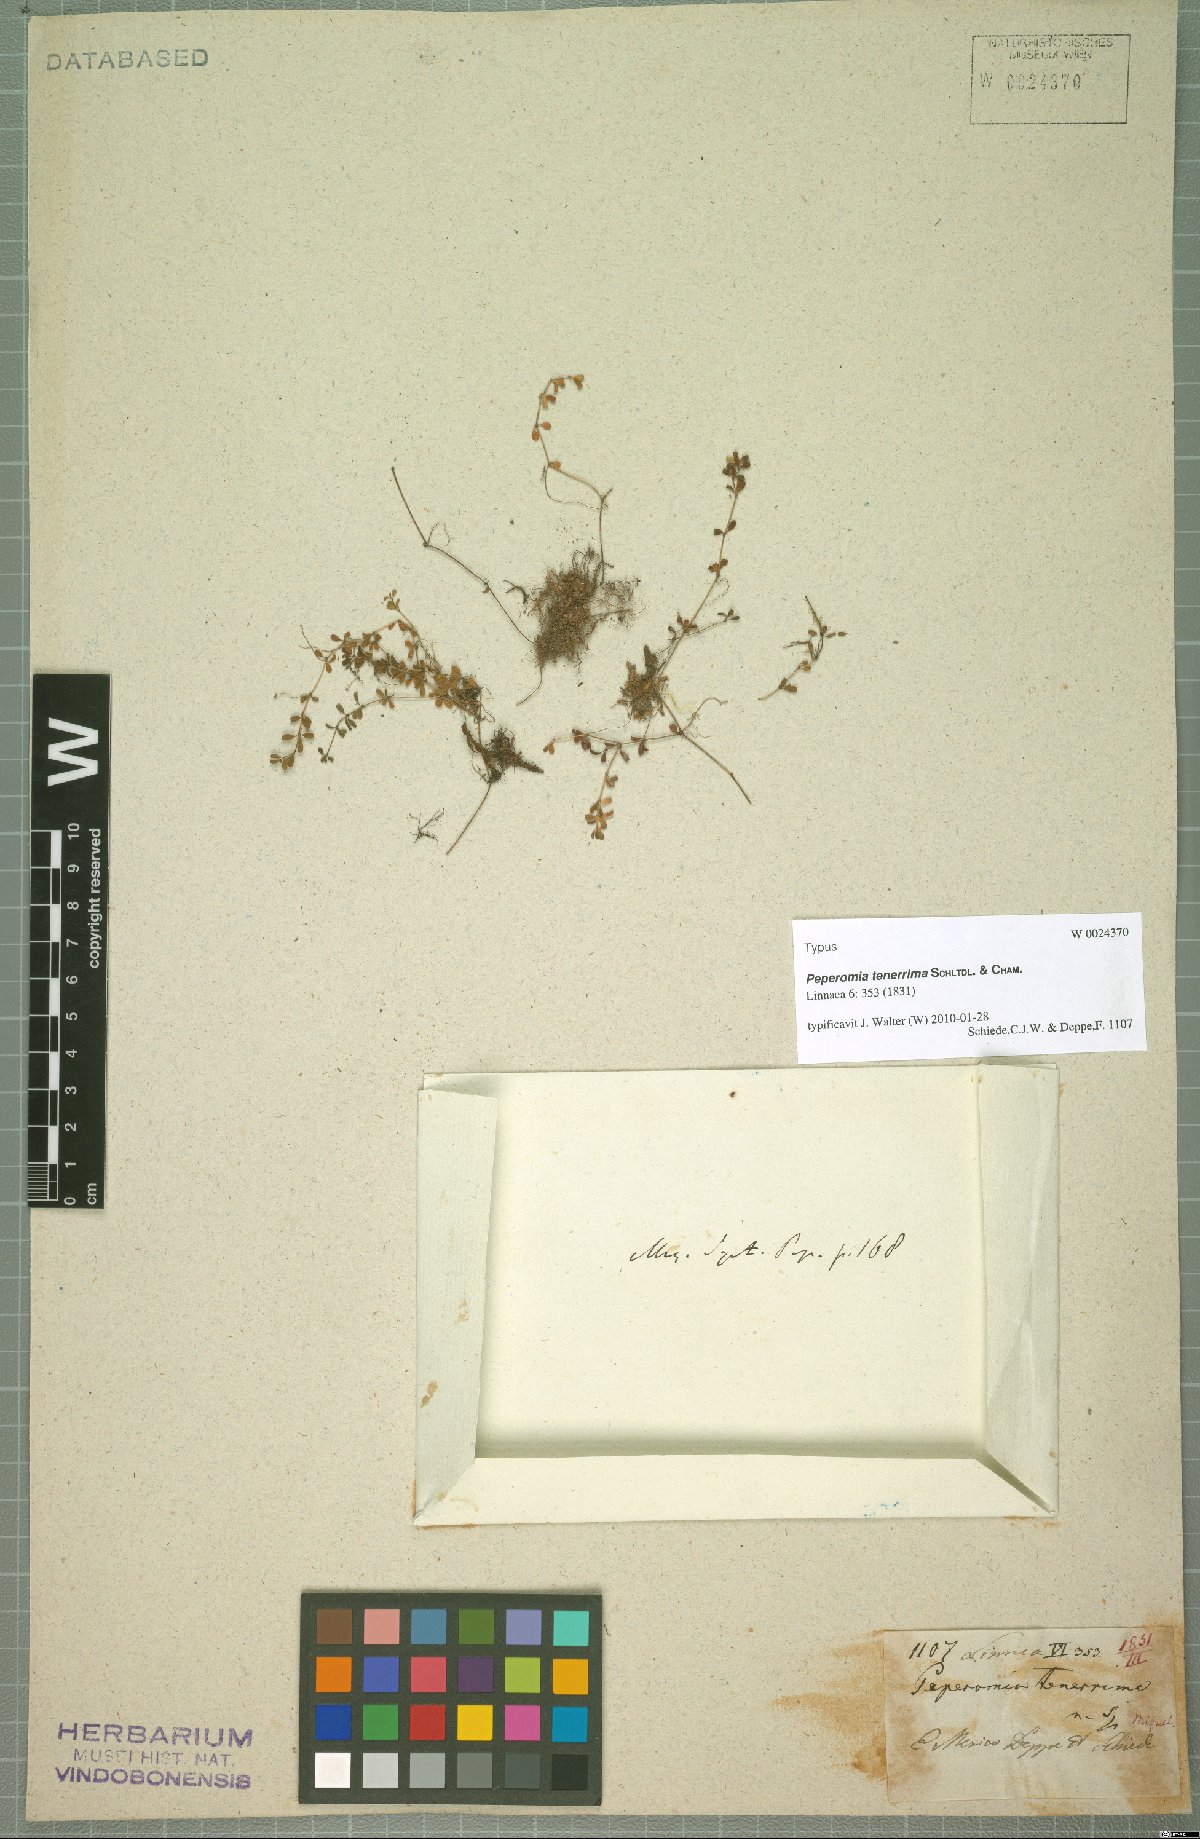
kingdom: Plantae
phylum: Tracheophyta
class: Magnoliopsida
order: Piperales
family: Piperaceae
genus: Peperomia
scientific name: Peperomia tenerrima
